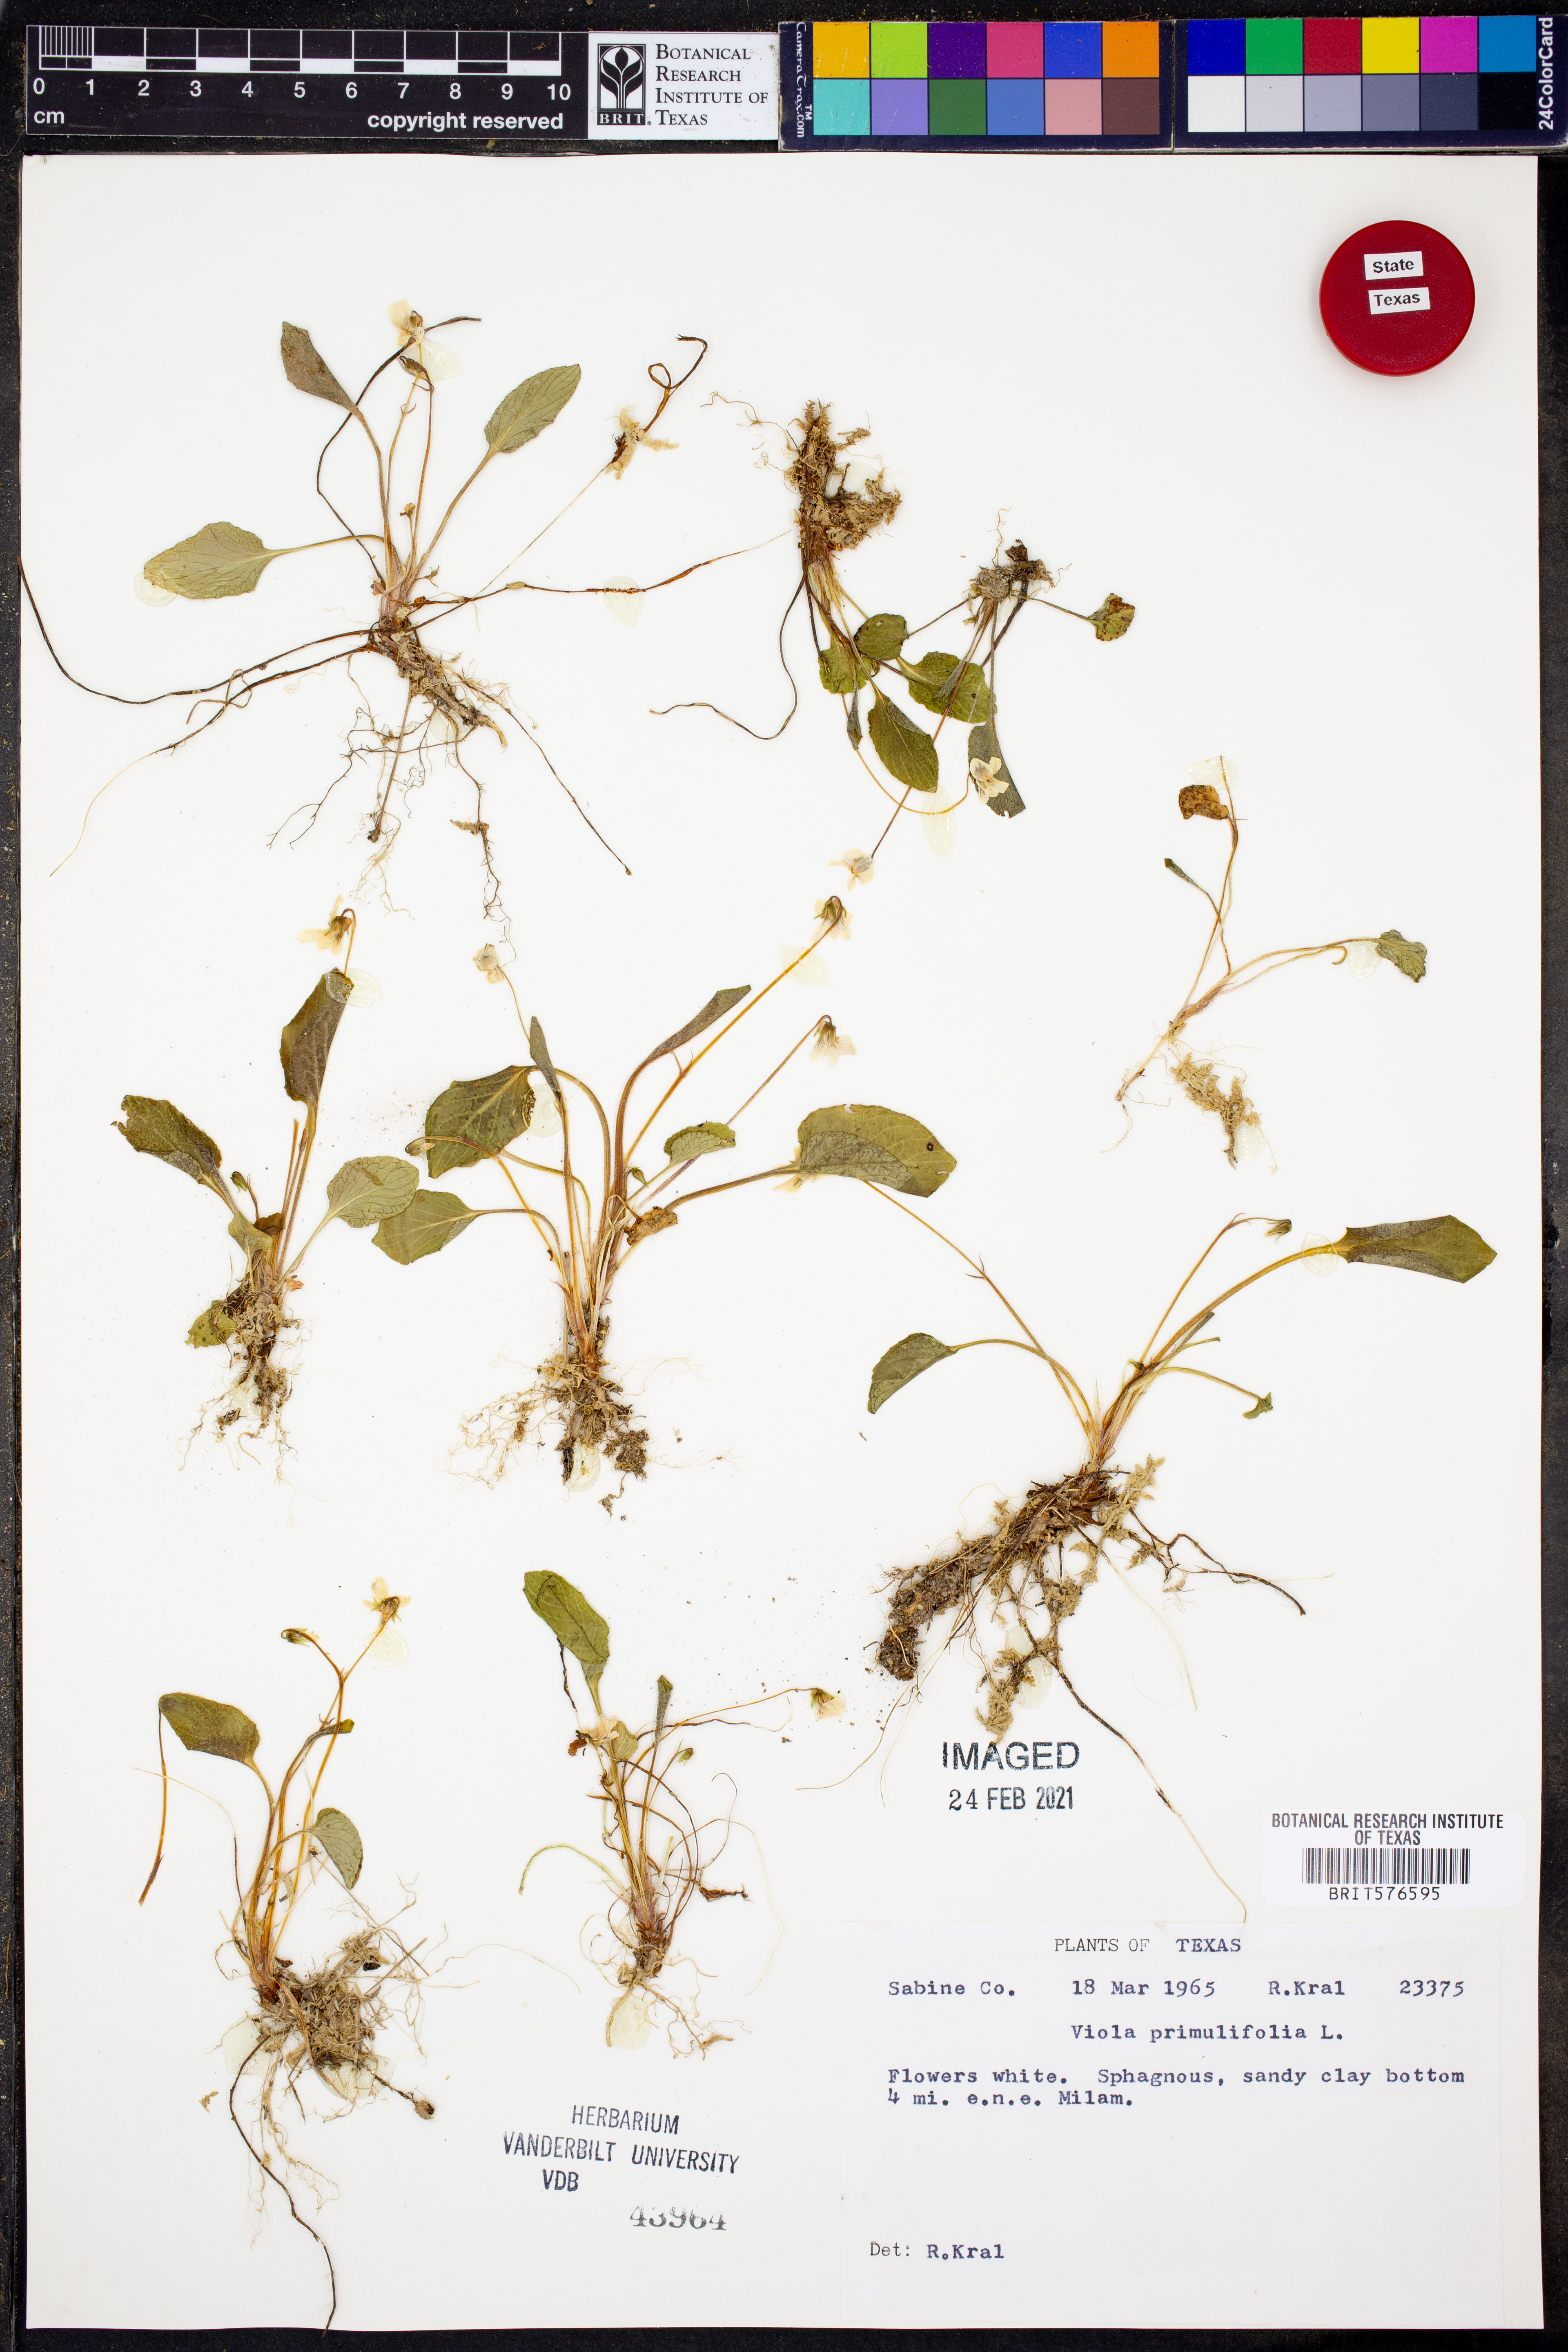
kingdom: Plantae
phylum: Tracheophyta
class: Magnoliopsida
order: Malpighiales
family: Violaceae
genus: Viola
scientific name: Viola primulifolia
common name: Primrose-leaf violet
